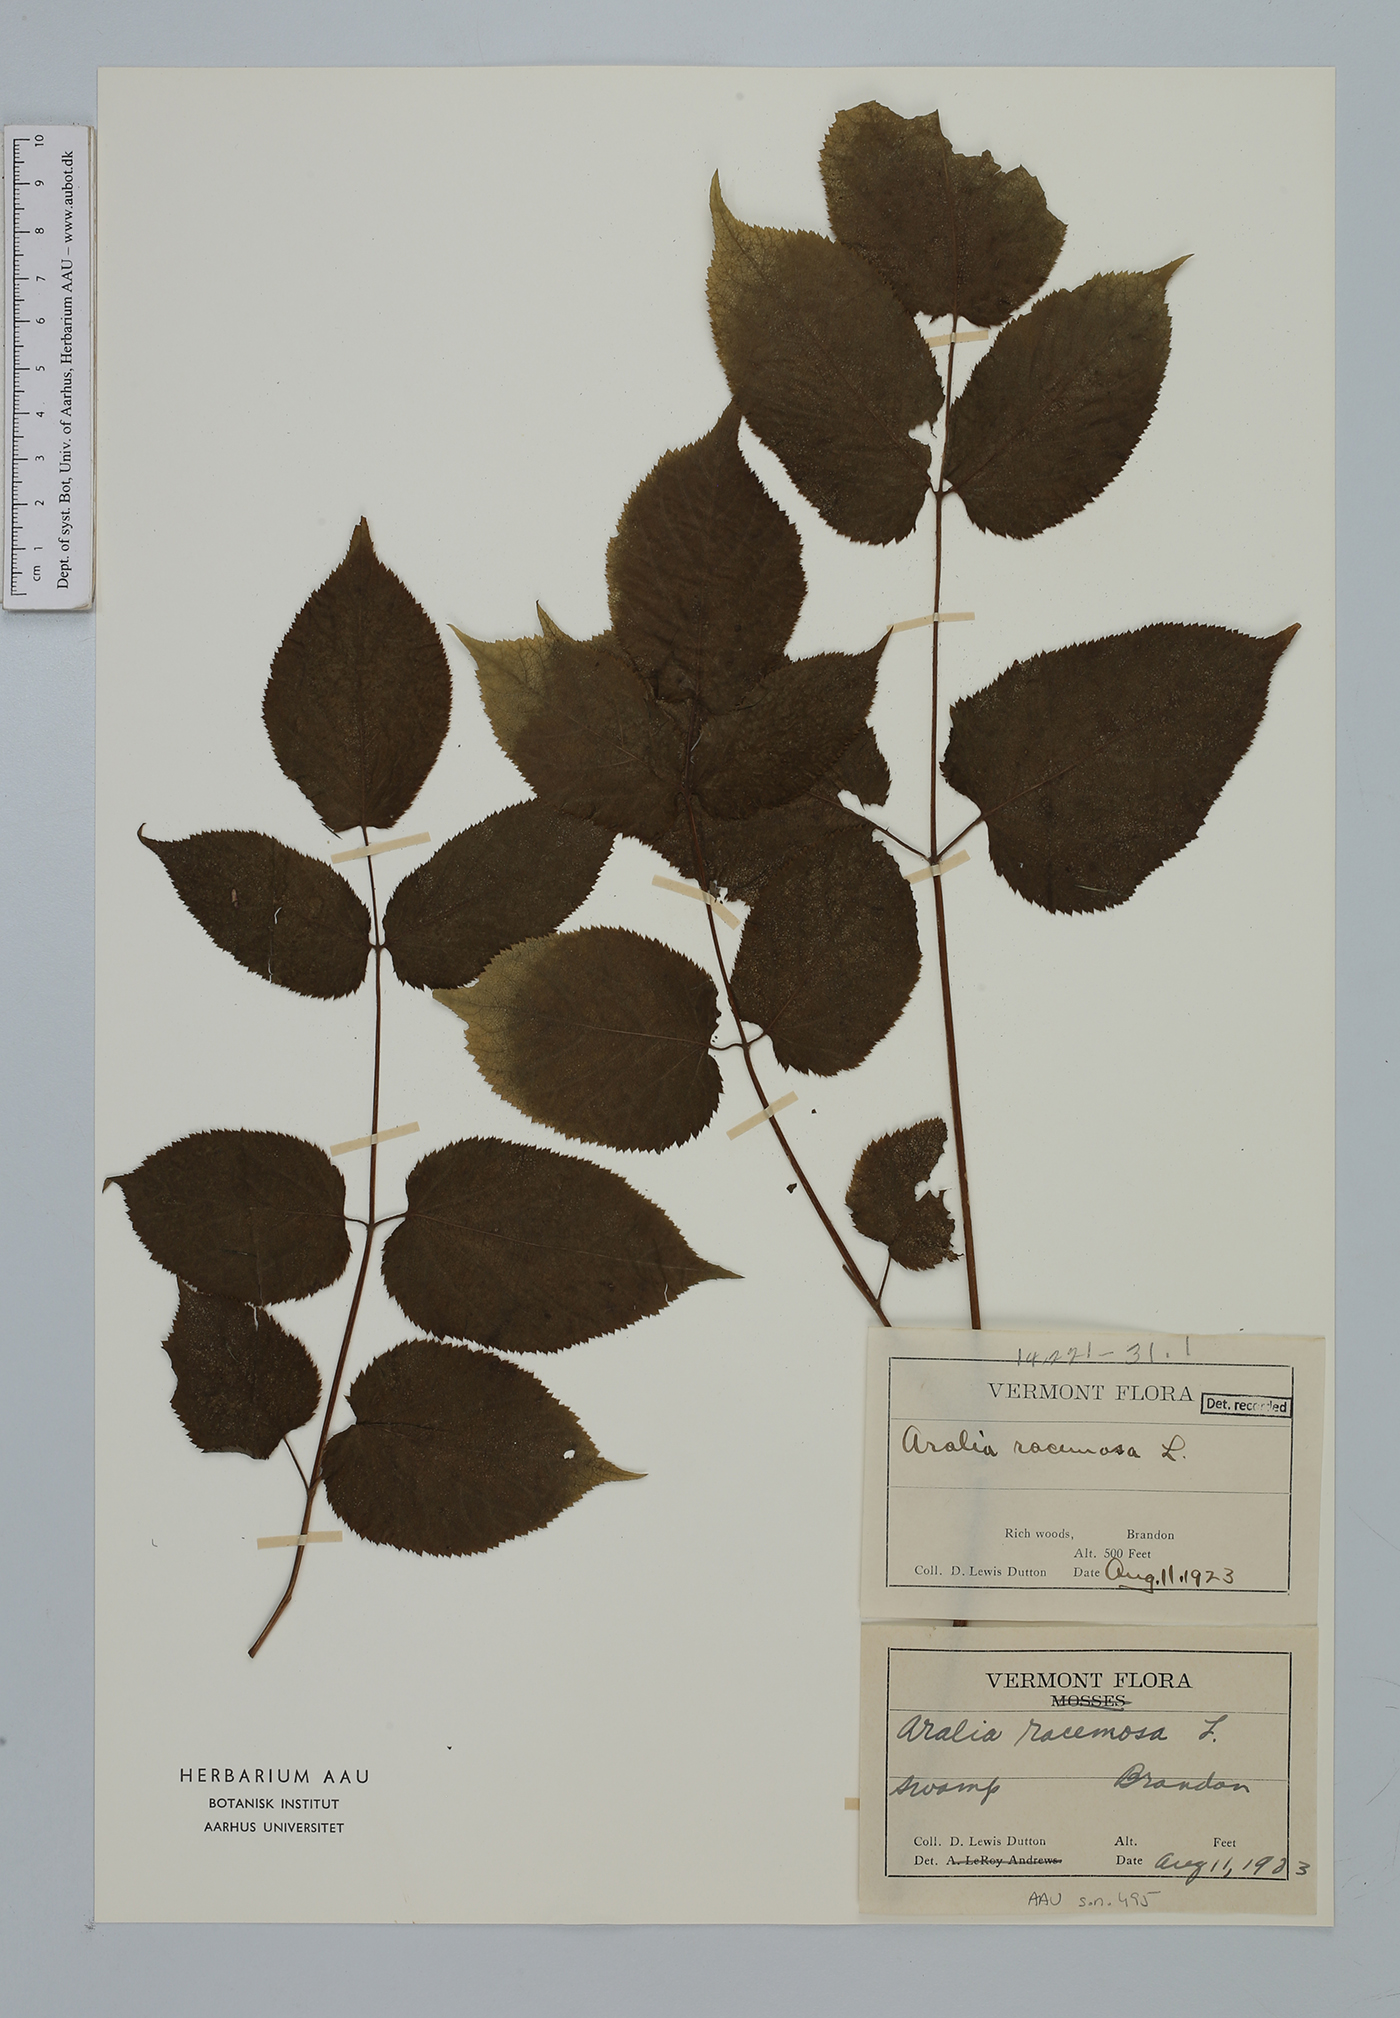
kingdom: Plantae
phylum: Tracheophyta
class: Magnoliopsida
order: Apiales
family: Araliaceae
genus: Aralia
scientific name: Aralia racemosa
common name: American-spikenard
